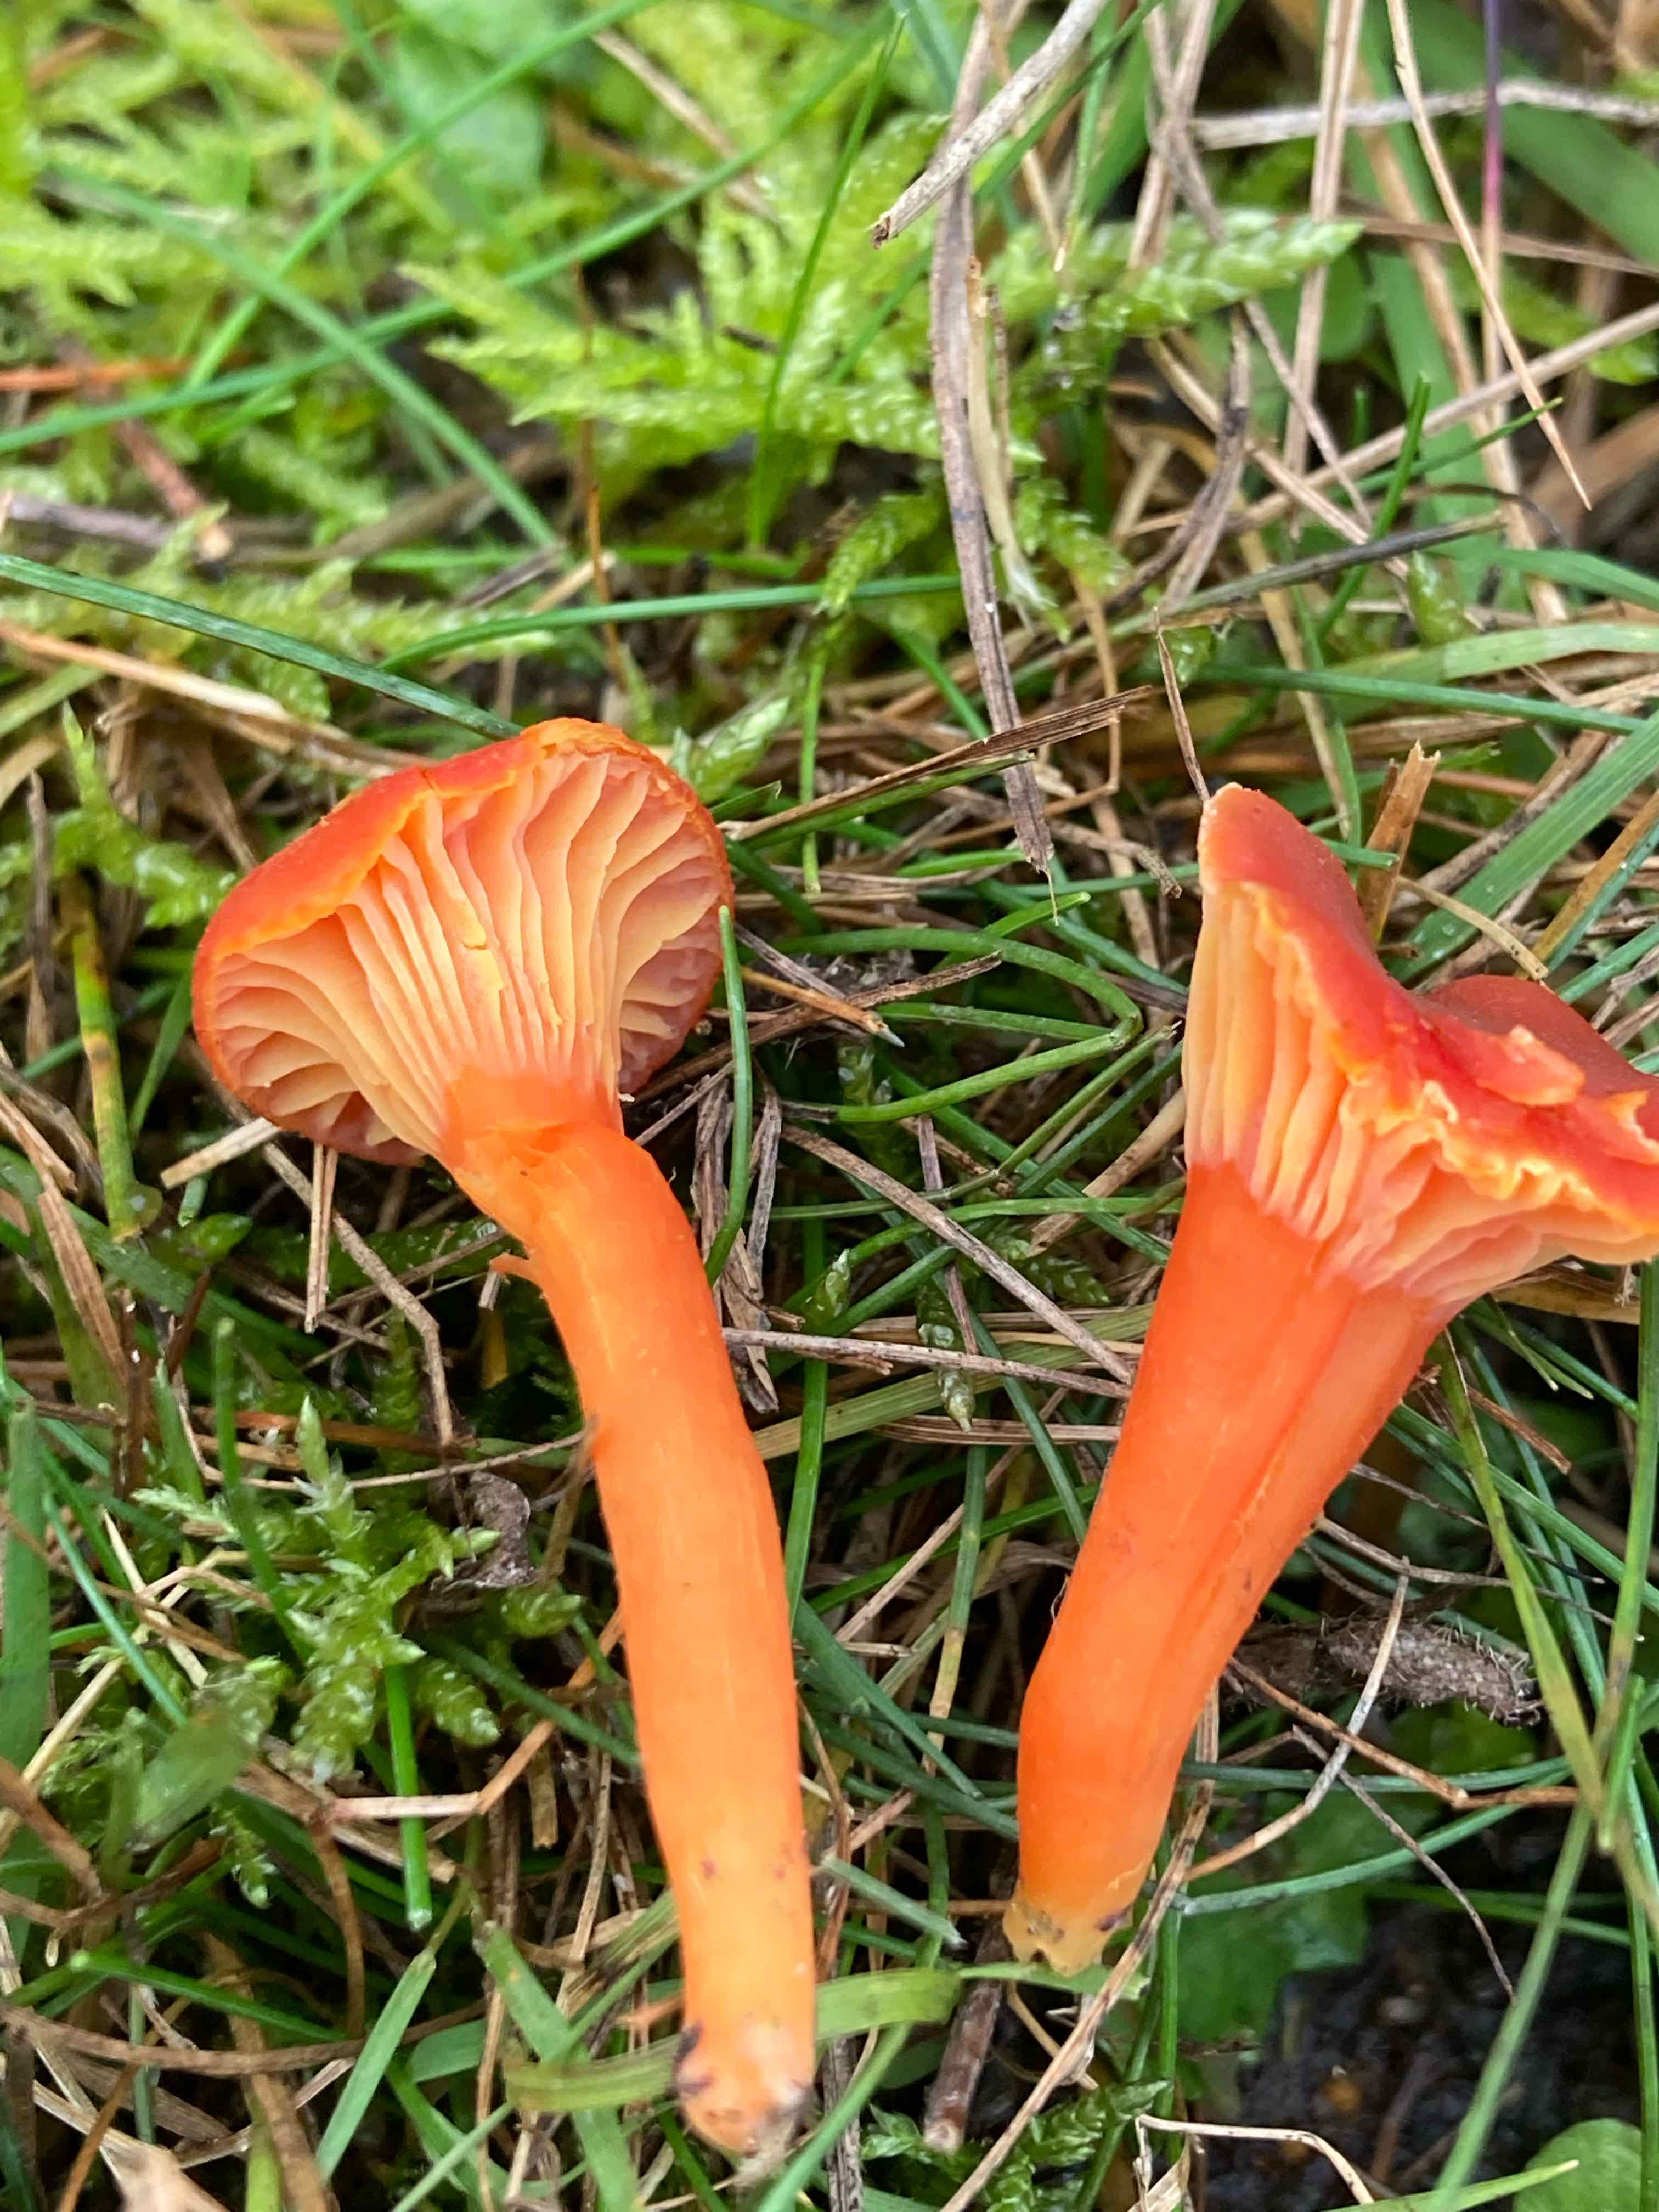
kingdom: Fungi
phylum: Basidiomycota
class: Agaricomycetes
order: Agaricales
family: Hygrophoraceae
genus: Hygrocybe
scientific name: Hygrocybe cantharellus
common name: kantarel-vokshat
